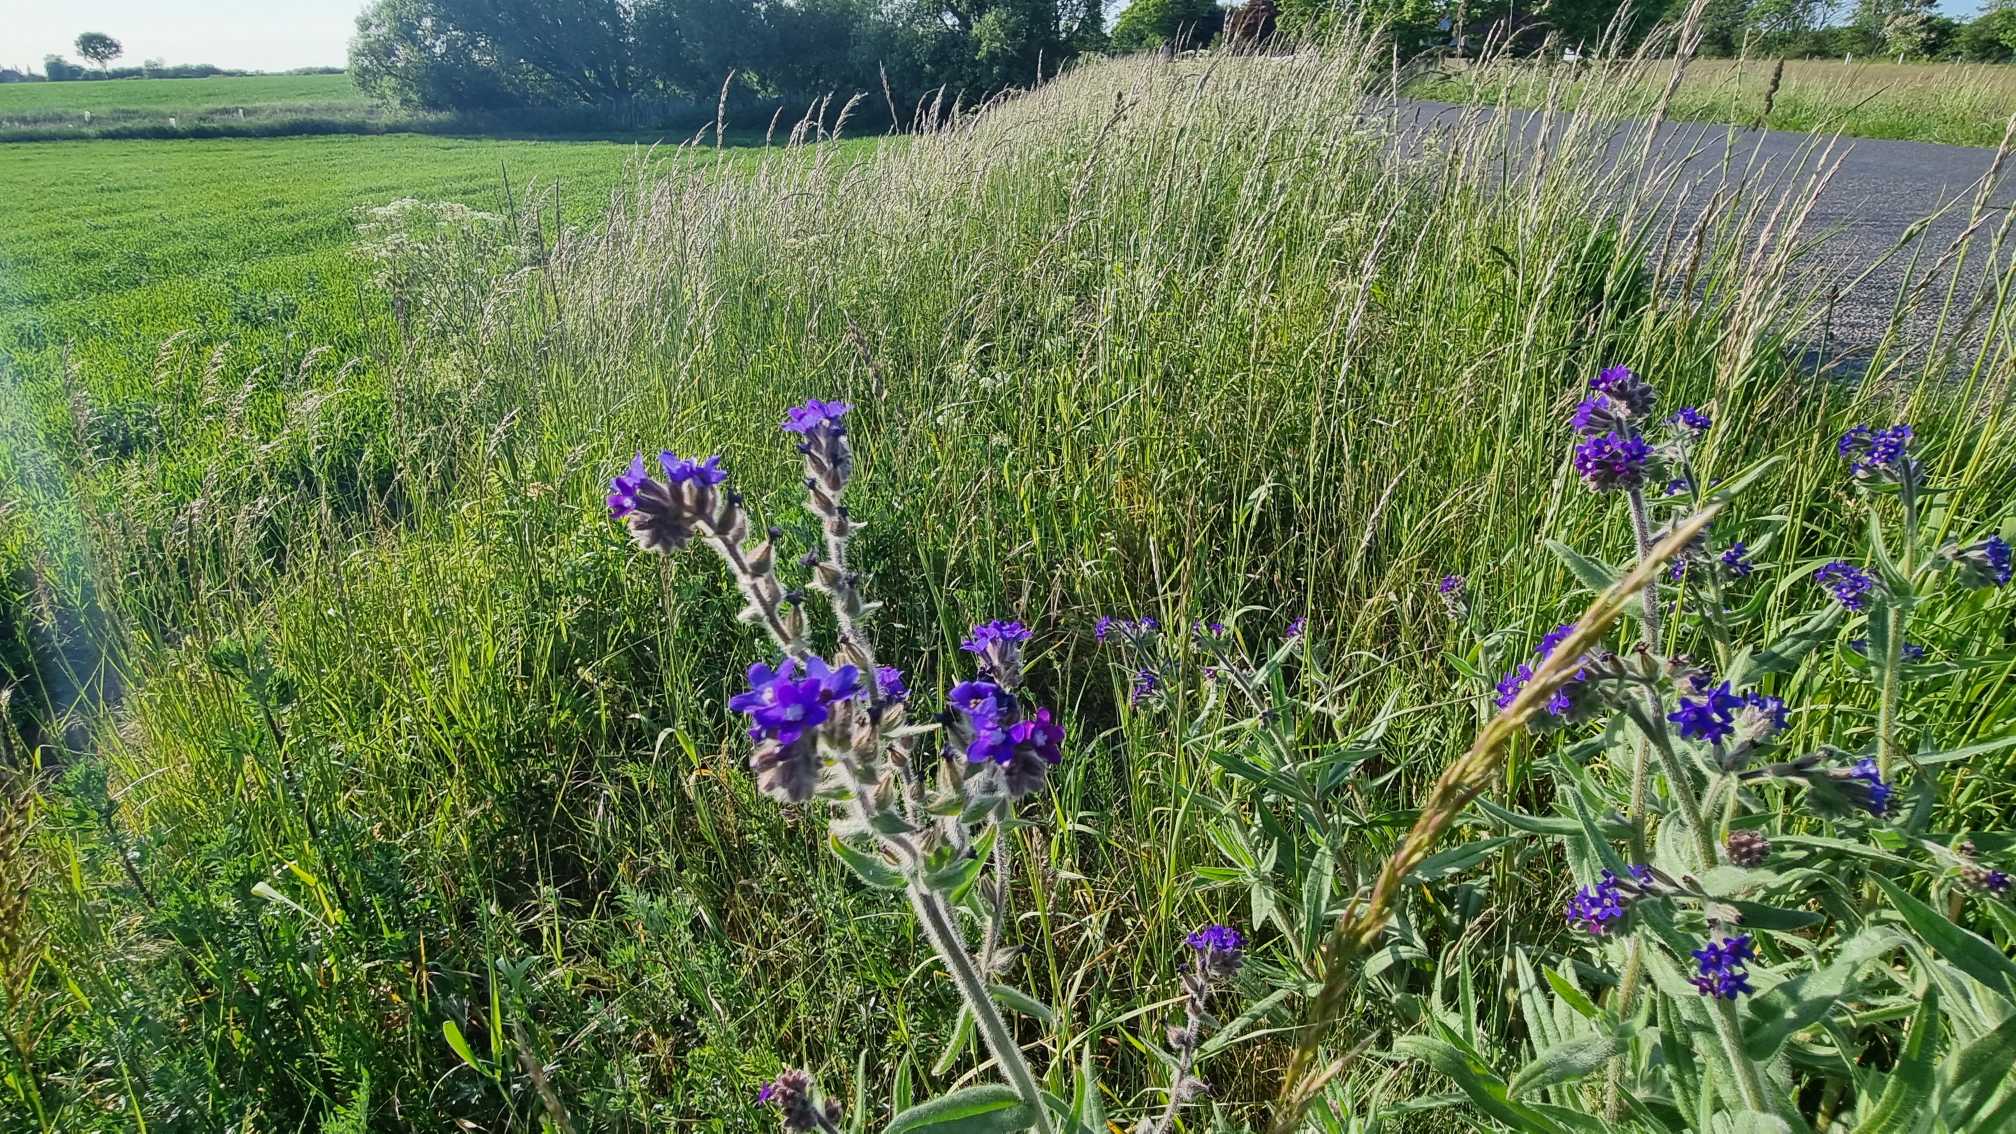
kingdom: Plantae
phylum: Tracheophyta
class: Magnoliopsida
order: Boraginales
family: Boraginaceae
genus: Anchusa
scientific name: Anchusa officinalis
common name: Læge-oksetunge
